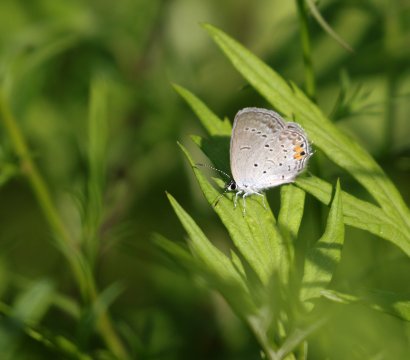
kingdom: Animalia
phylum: Arthropoda
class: Insecta
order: Lepidoptera
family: Lycaenidae
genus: Elkalyce
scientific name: Elkalyce comyntas
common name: Eastern Tailed-Blue
